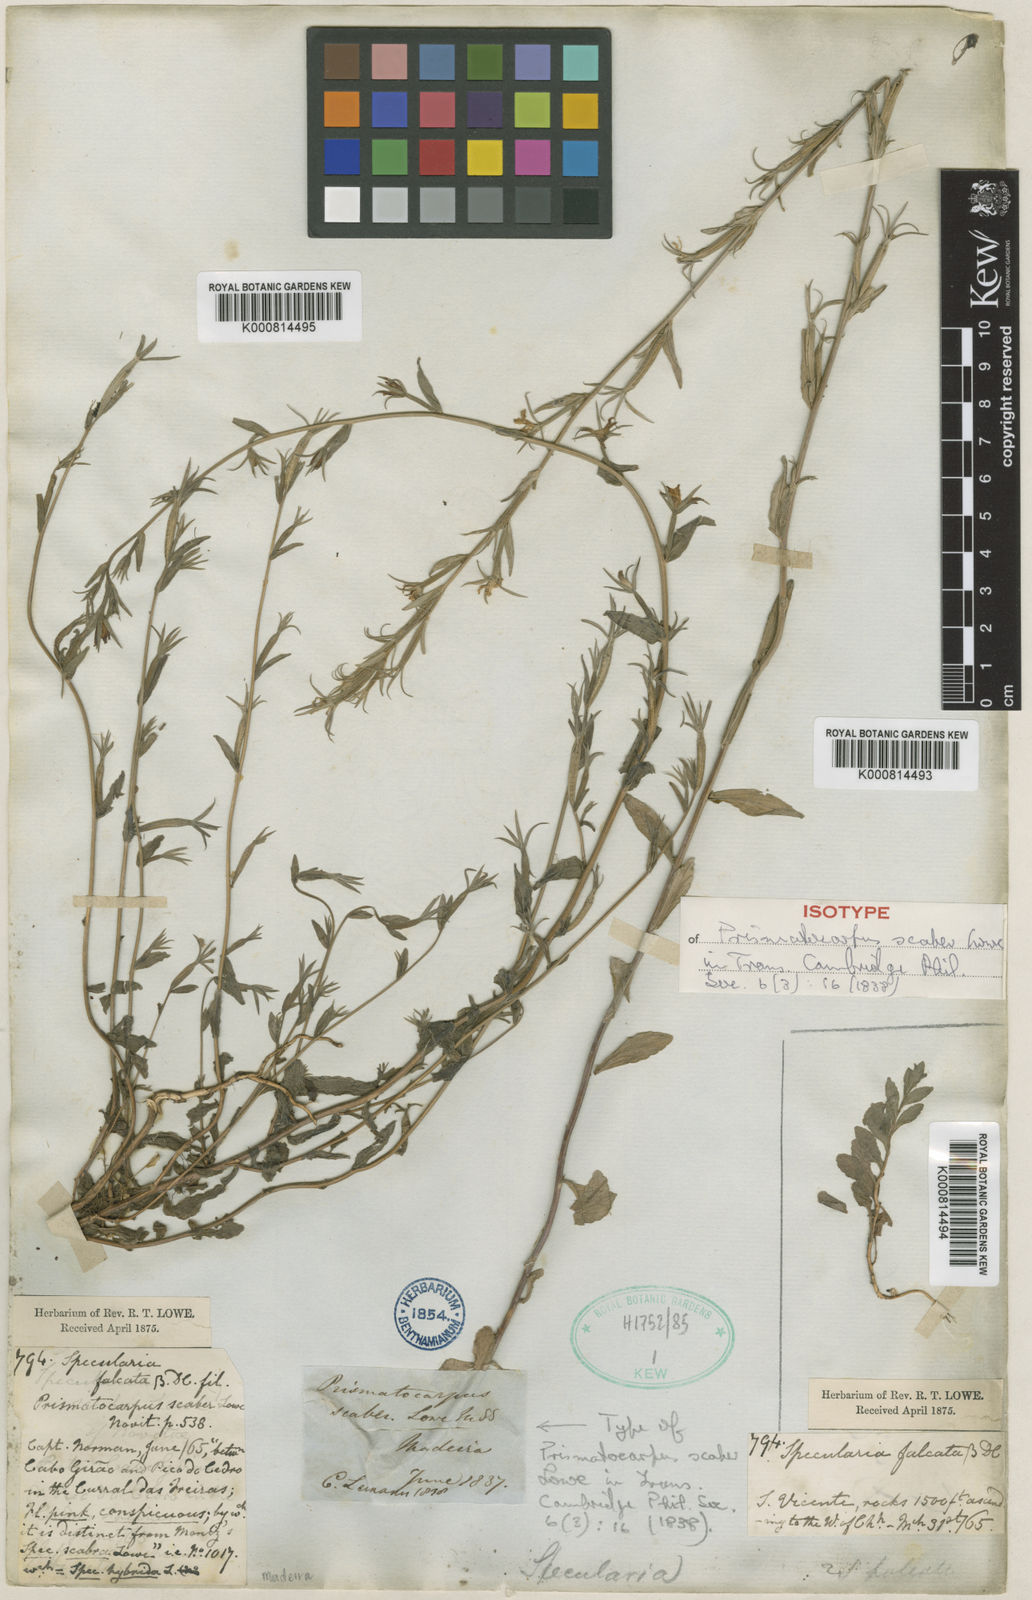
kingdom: Plantae
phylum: Tracheophyta
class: Magnoliopsida
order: Asterales
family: Campanulaceae
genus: Legousia
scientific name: Legousia falcata
